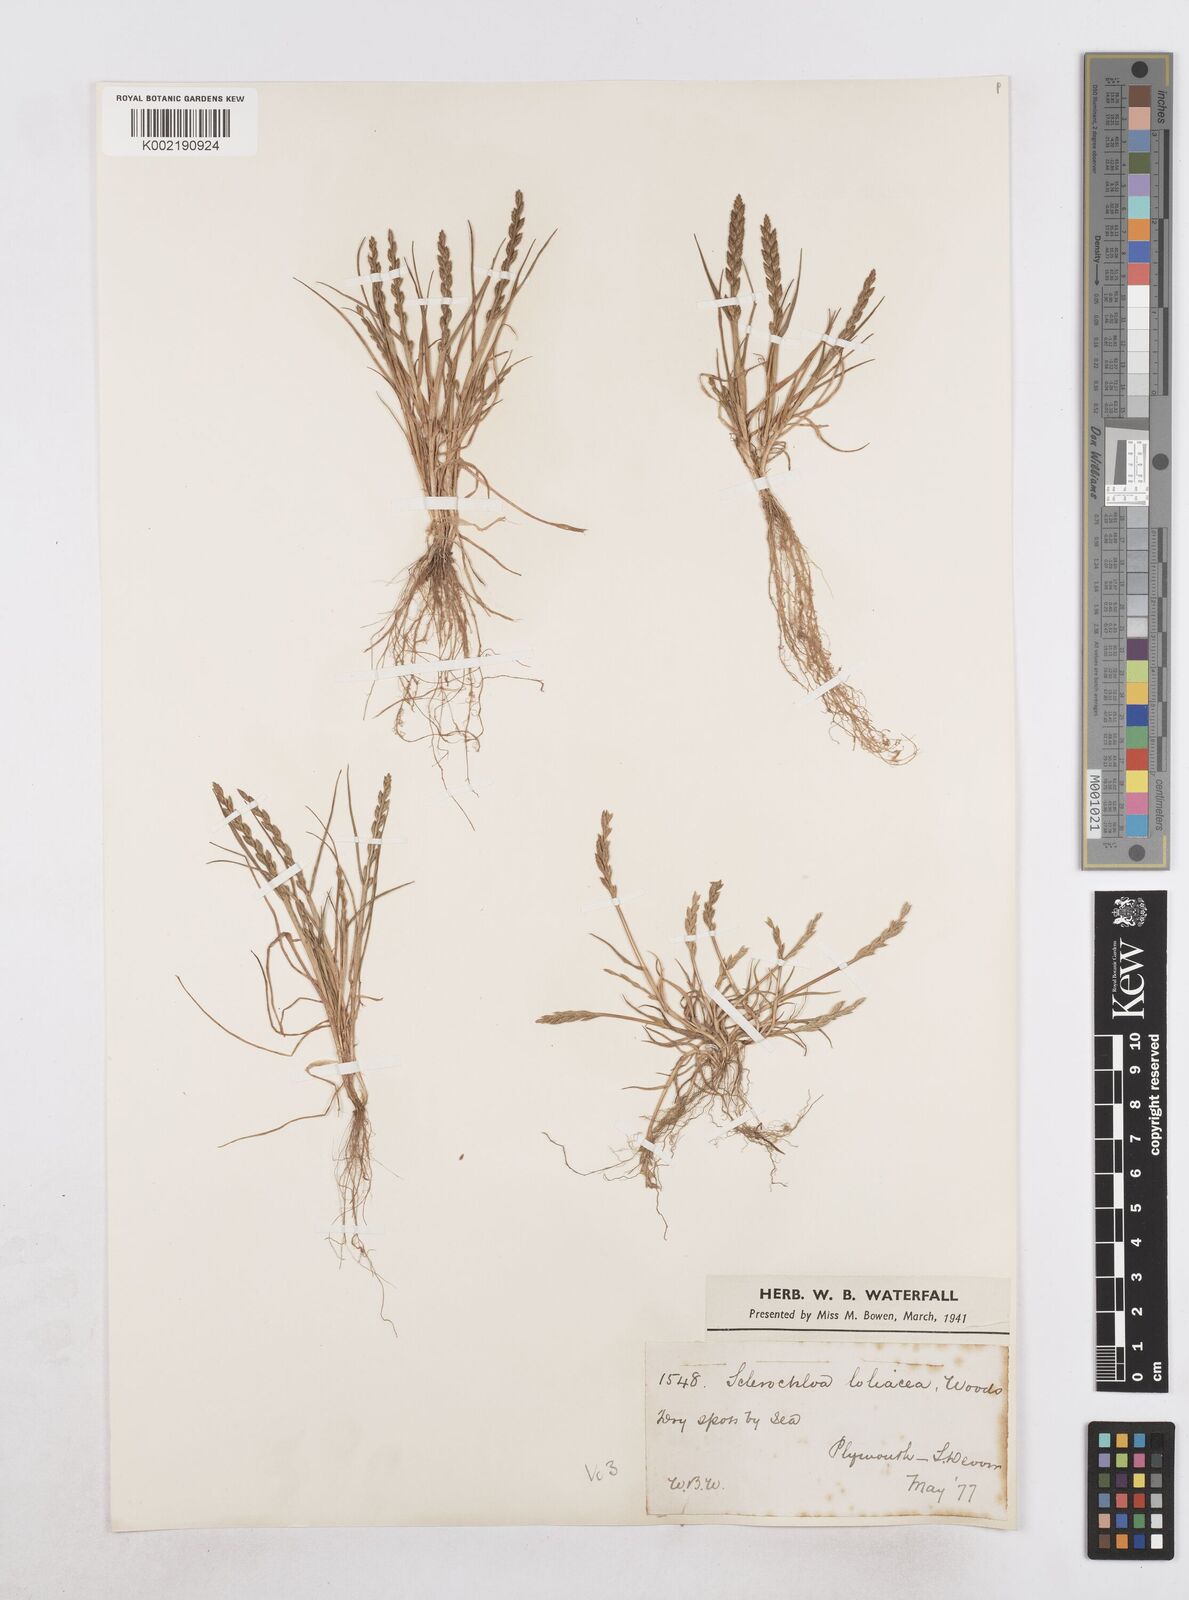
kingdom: Plantae
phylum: Tracheophyta
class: Liliopsida
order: Poales
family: Poaceae
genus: Catapodium
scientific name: Catapodium marinum
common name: Sea fern-grass
